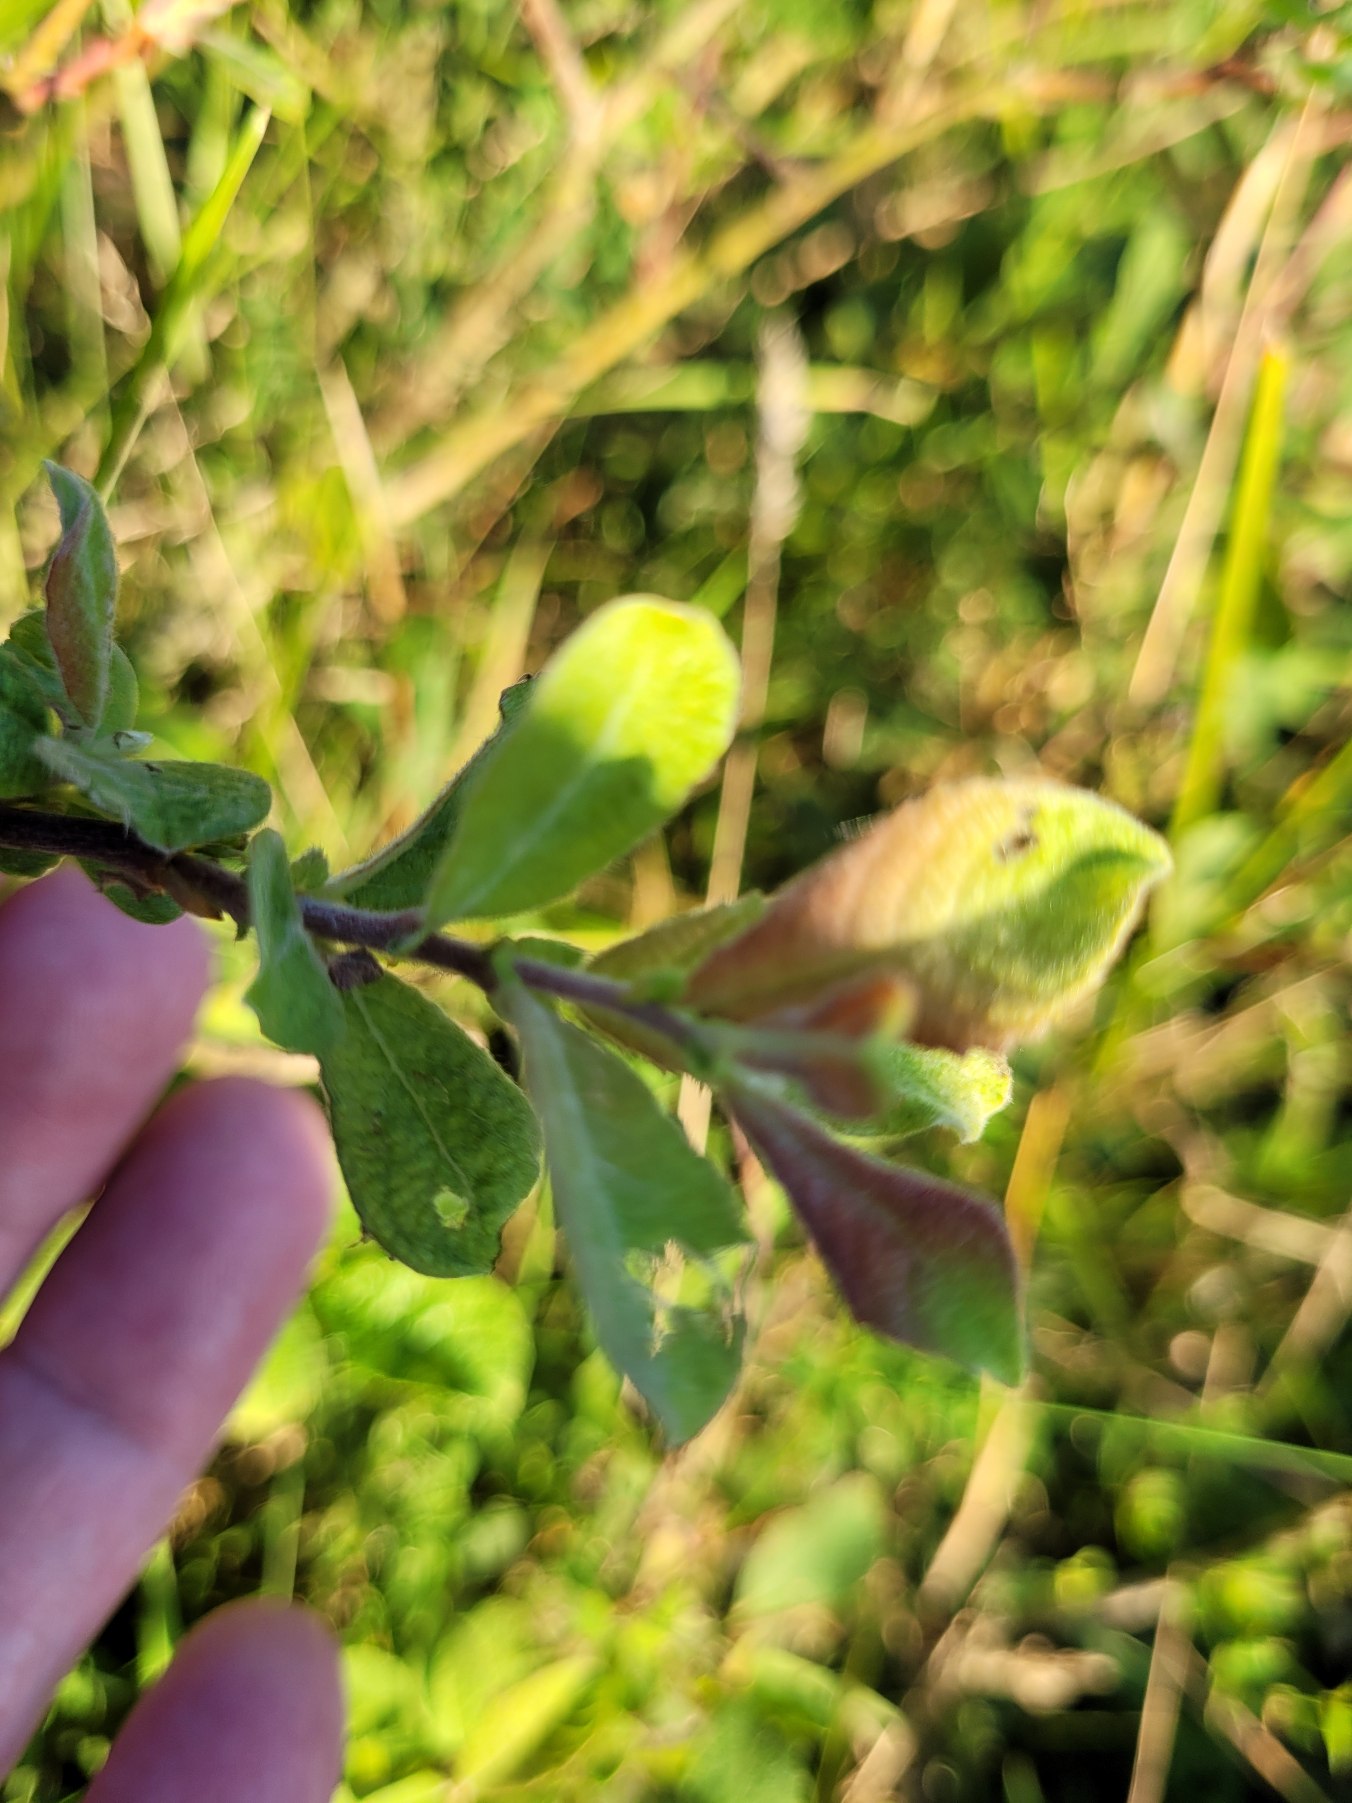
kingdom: Plantae
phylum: Tracheophyta
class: Magnoliopsida
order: Malpighiales
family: Salicaceae
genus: Salix
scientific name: Salix aurita
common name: Øret pil
